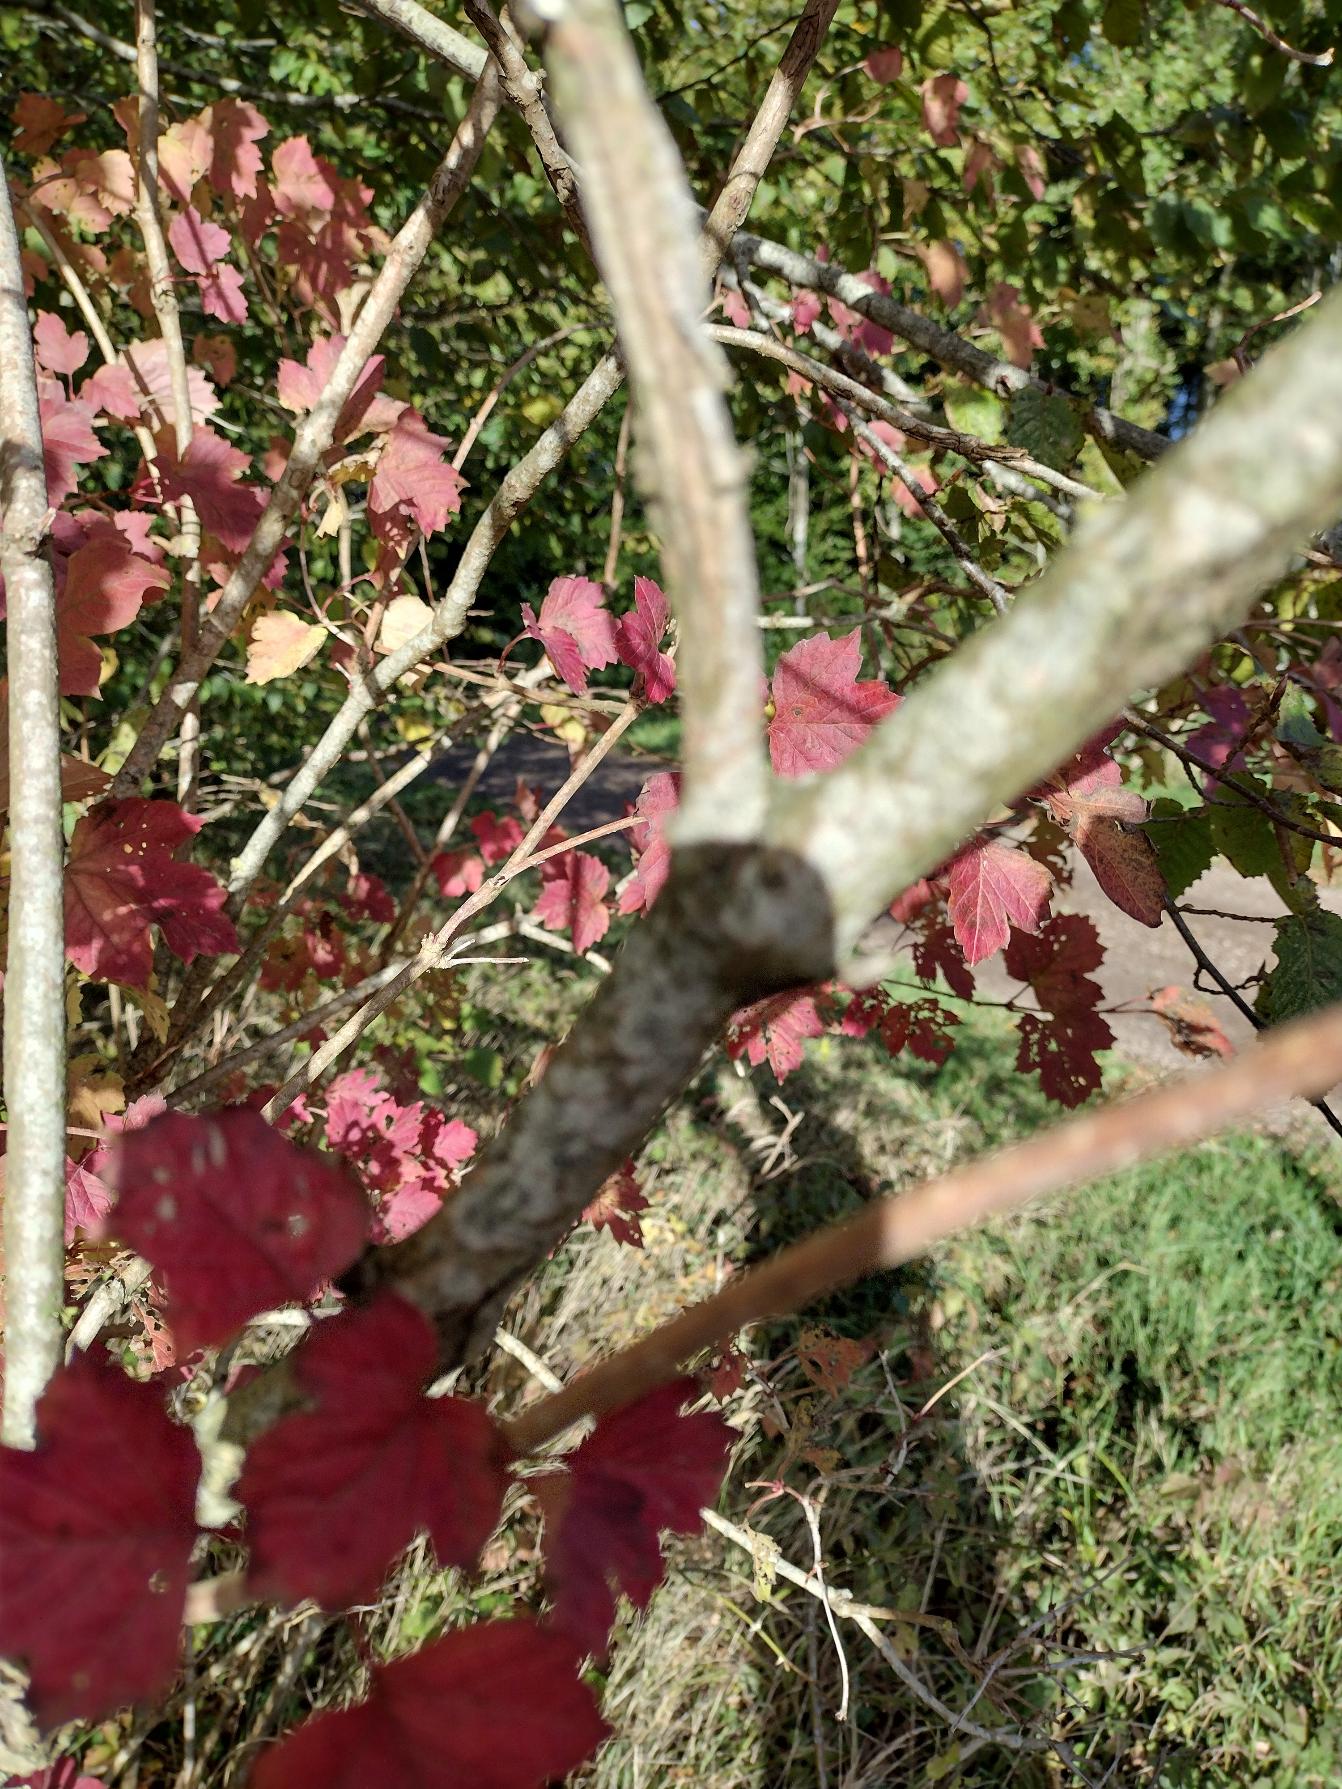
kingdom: Plantae
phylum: Tracheophyta
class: Magnoliopsida
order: Dipsacales
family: Viburnaceae
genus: Viburnum
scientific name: Viburnum opulus
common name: Kvalkved
